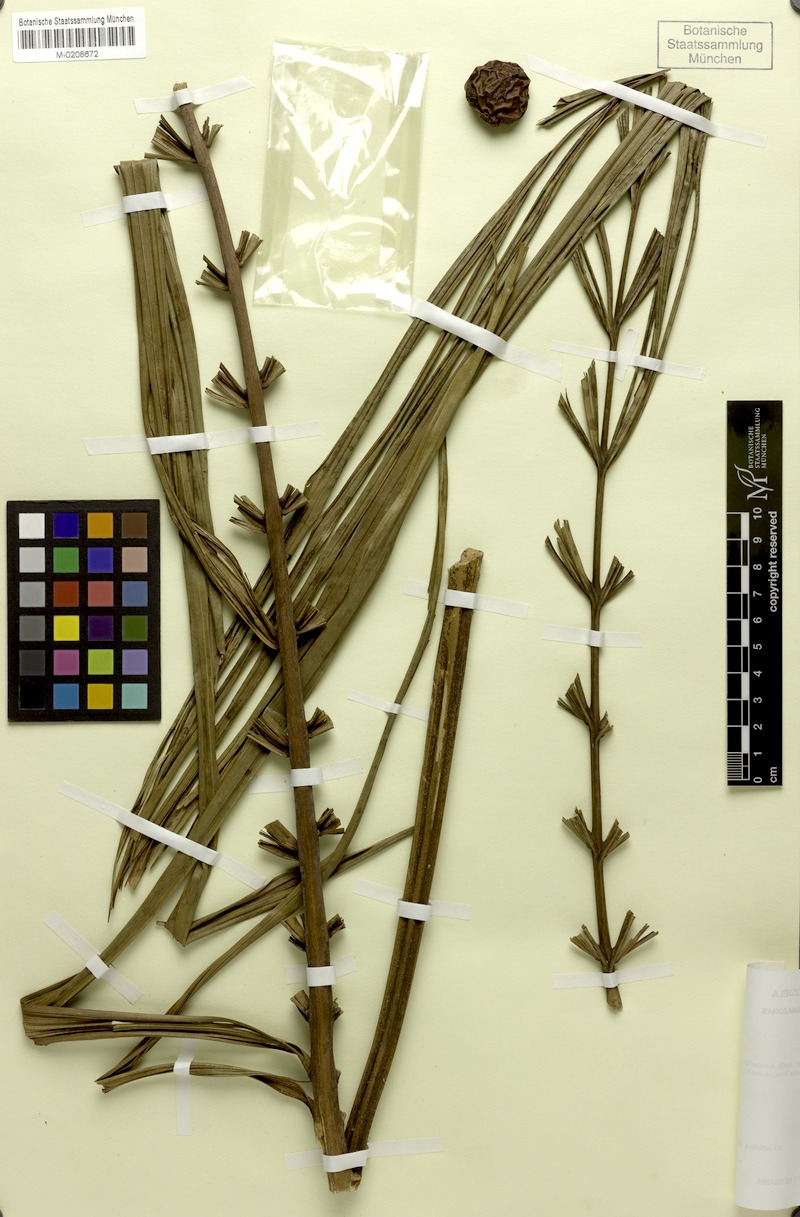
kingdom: Plantae
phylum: Tracheophyta
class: Liliopsida
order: Arecales
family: Arecaceae
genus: Leopoldinia
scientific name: Leopoldinia pulchra
